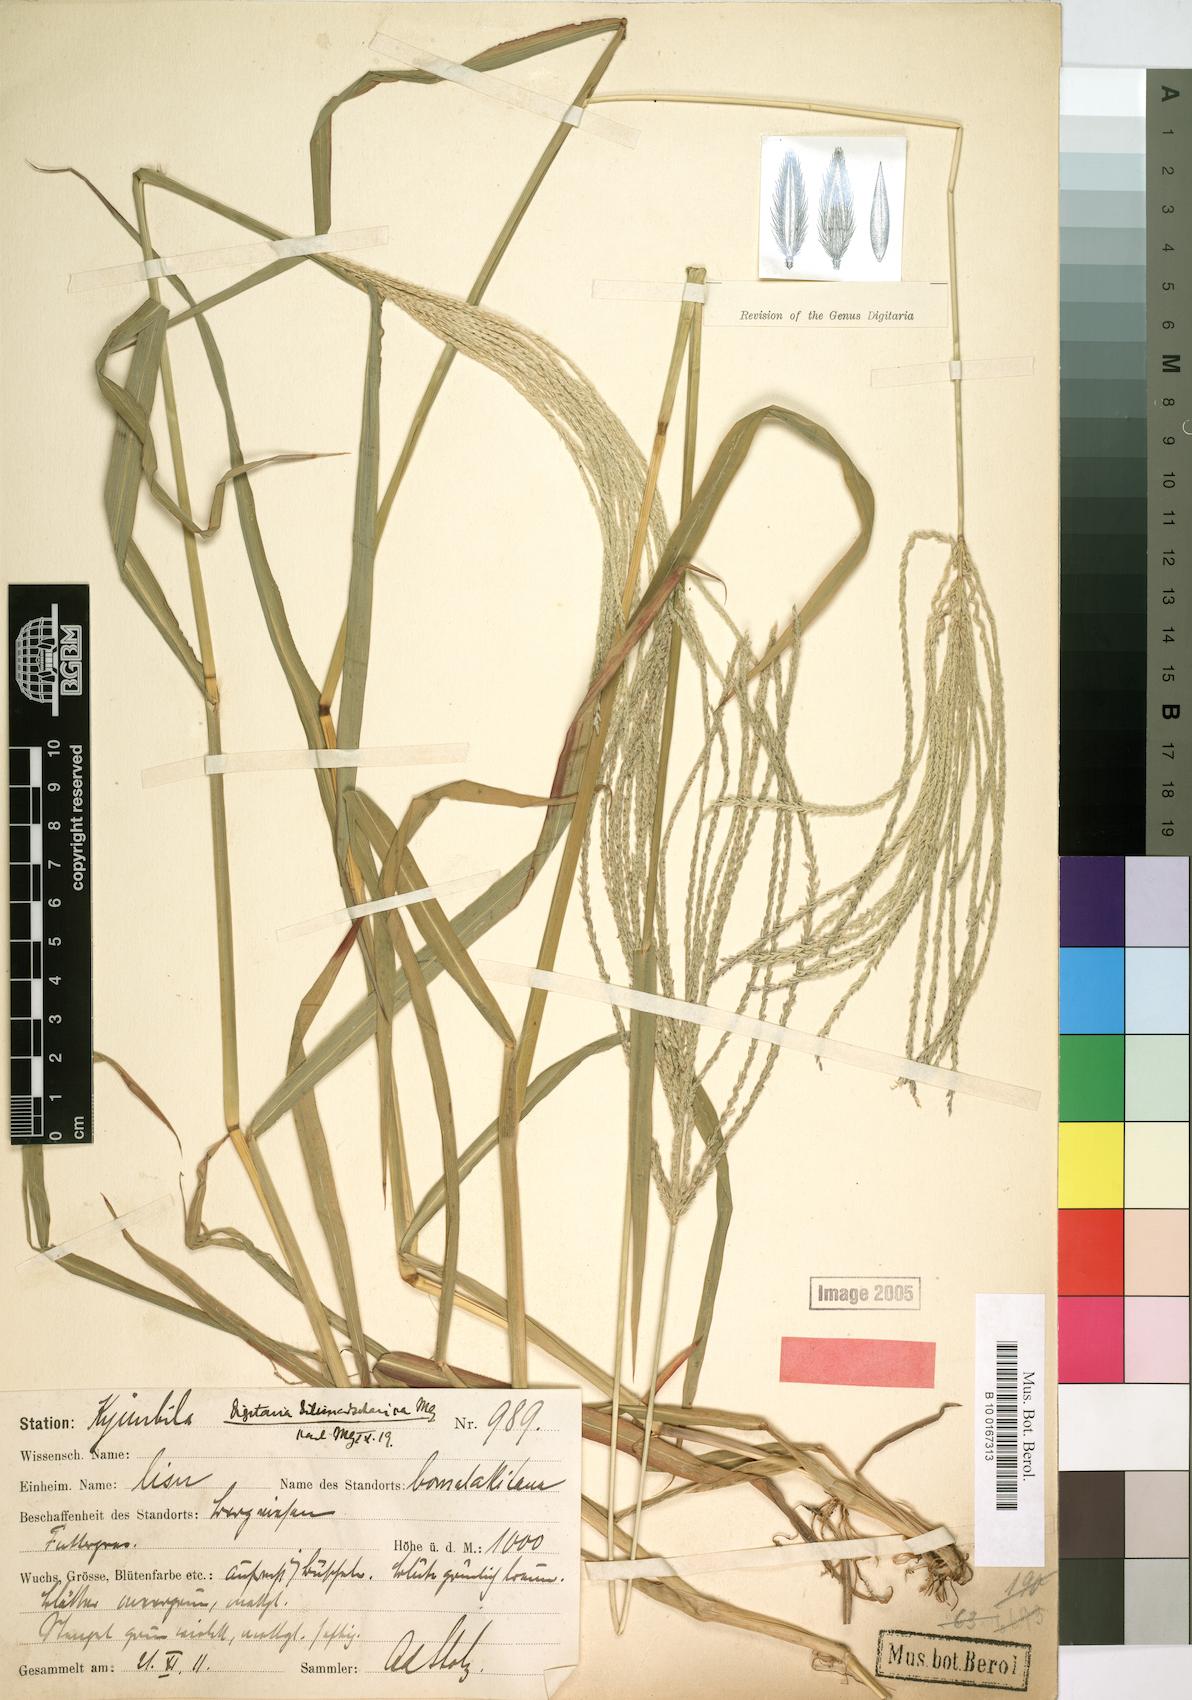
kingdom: Plantae
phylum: Tracheophyta
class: Liliopsida
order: Poales
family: Poaceae
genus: Digitaria
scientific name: Digitaria milanjiana
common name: Madagascar crabgrass
